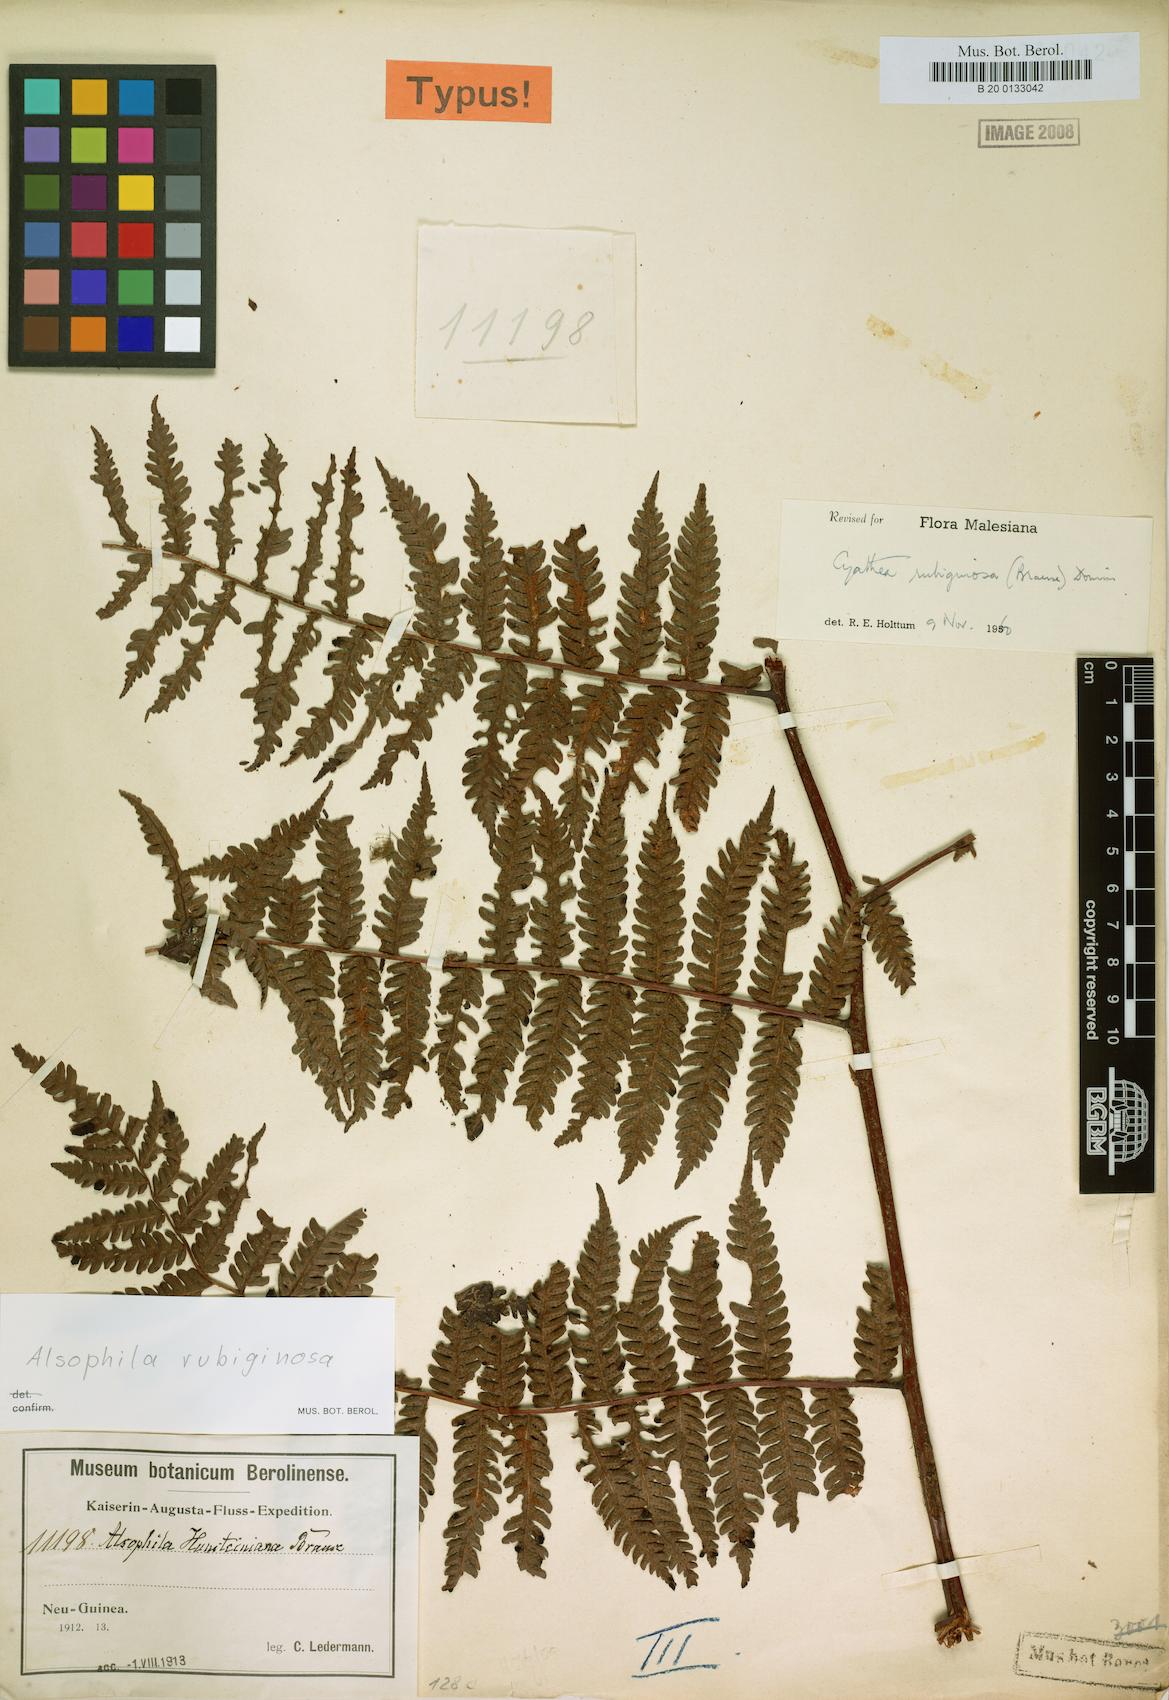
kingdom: Plantae
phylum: Tracheophyta
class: Polypodiopsida
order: Cyatheales
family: Cyatheaceae
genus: Alsophila
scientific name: Alsophila rubiginosa
